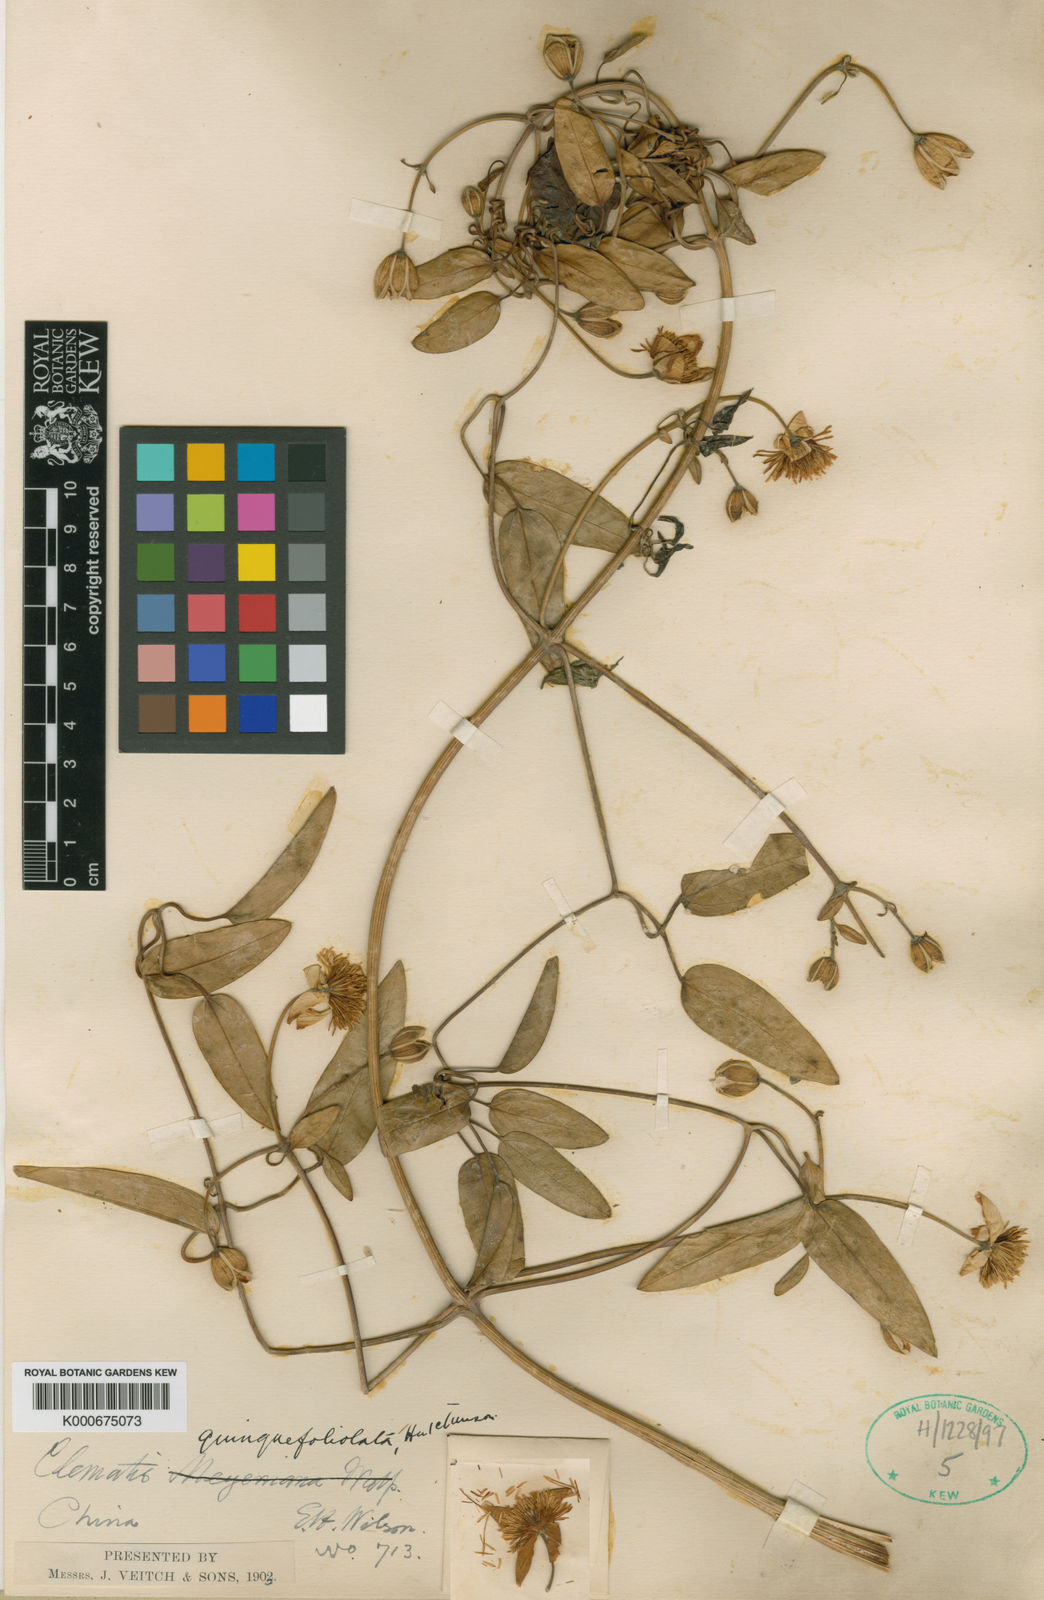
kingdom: Plantae
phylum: Tracheophyta
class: Magnoliopsida
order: Ranunculales
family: Ranunculaceae
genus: Clematis
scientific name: Clematis quinquefoliolata
